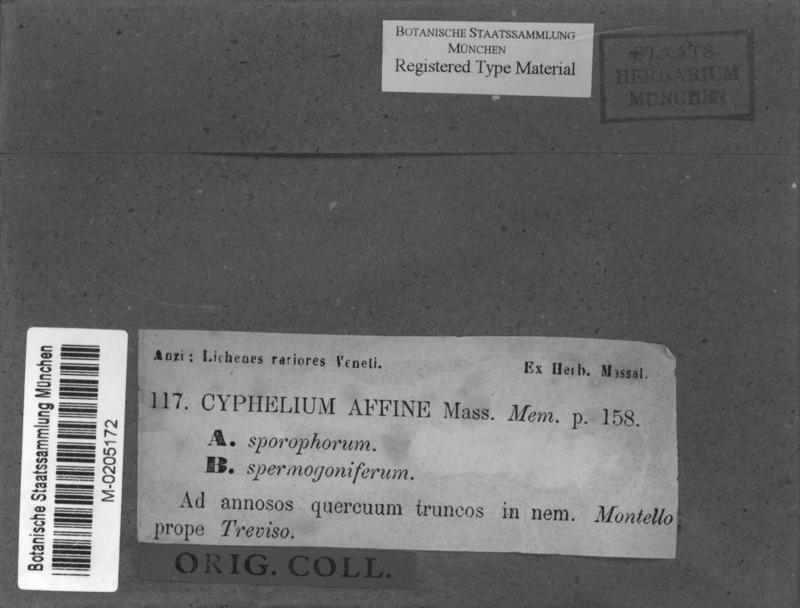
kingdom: Fungi
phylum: Ascomycota
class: Lecanoromycetes
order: Caliciales
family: Caliciaceae
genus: Calicium
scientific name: Calicium affine
